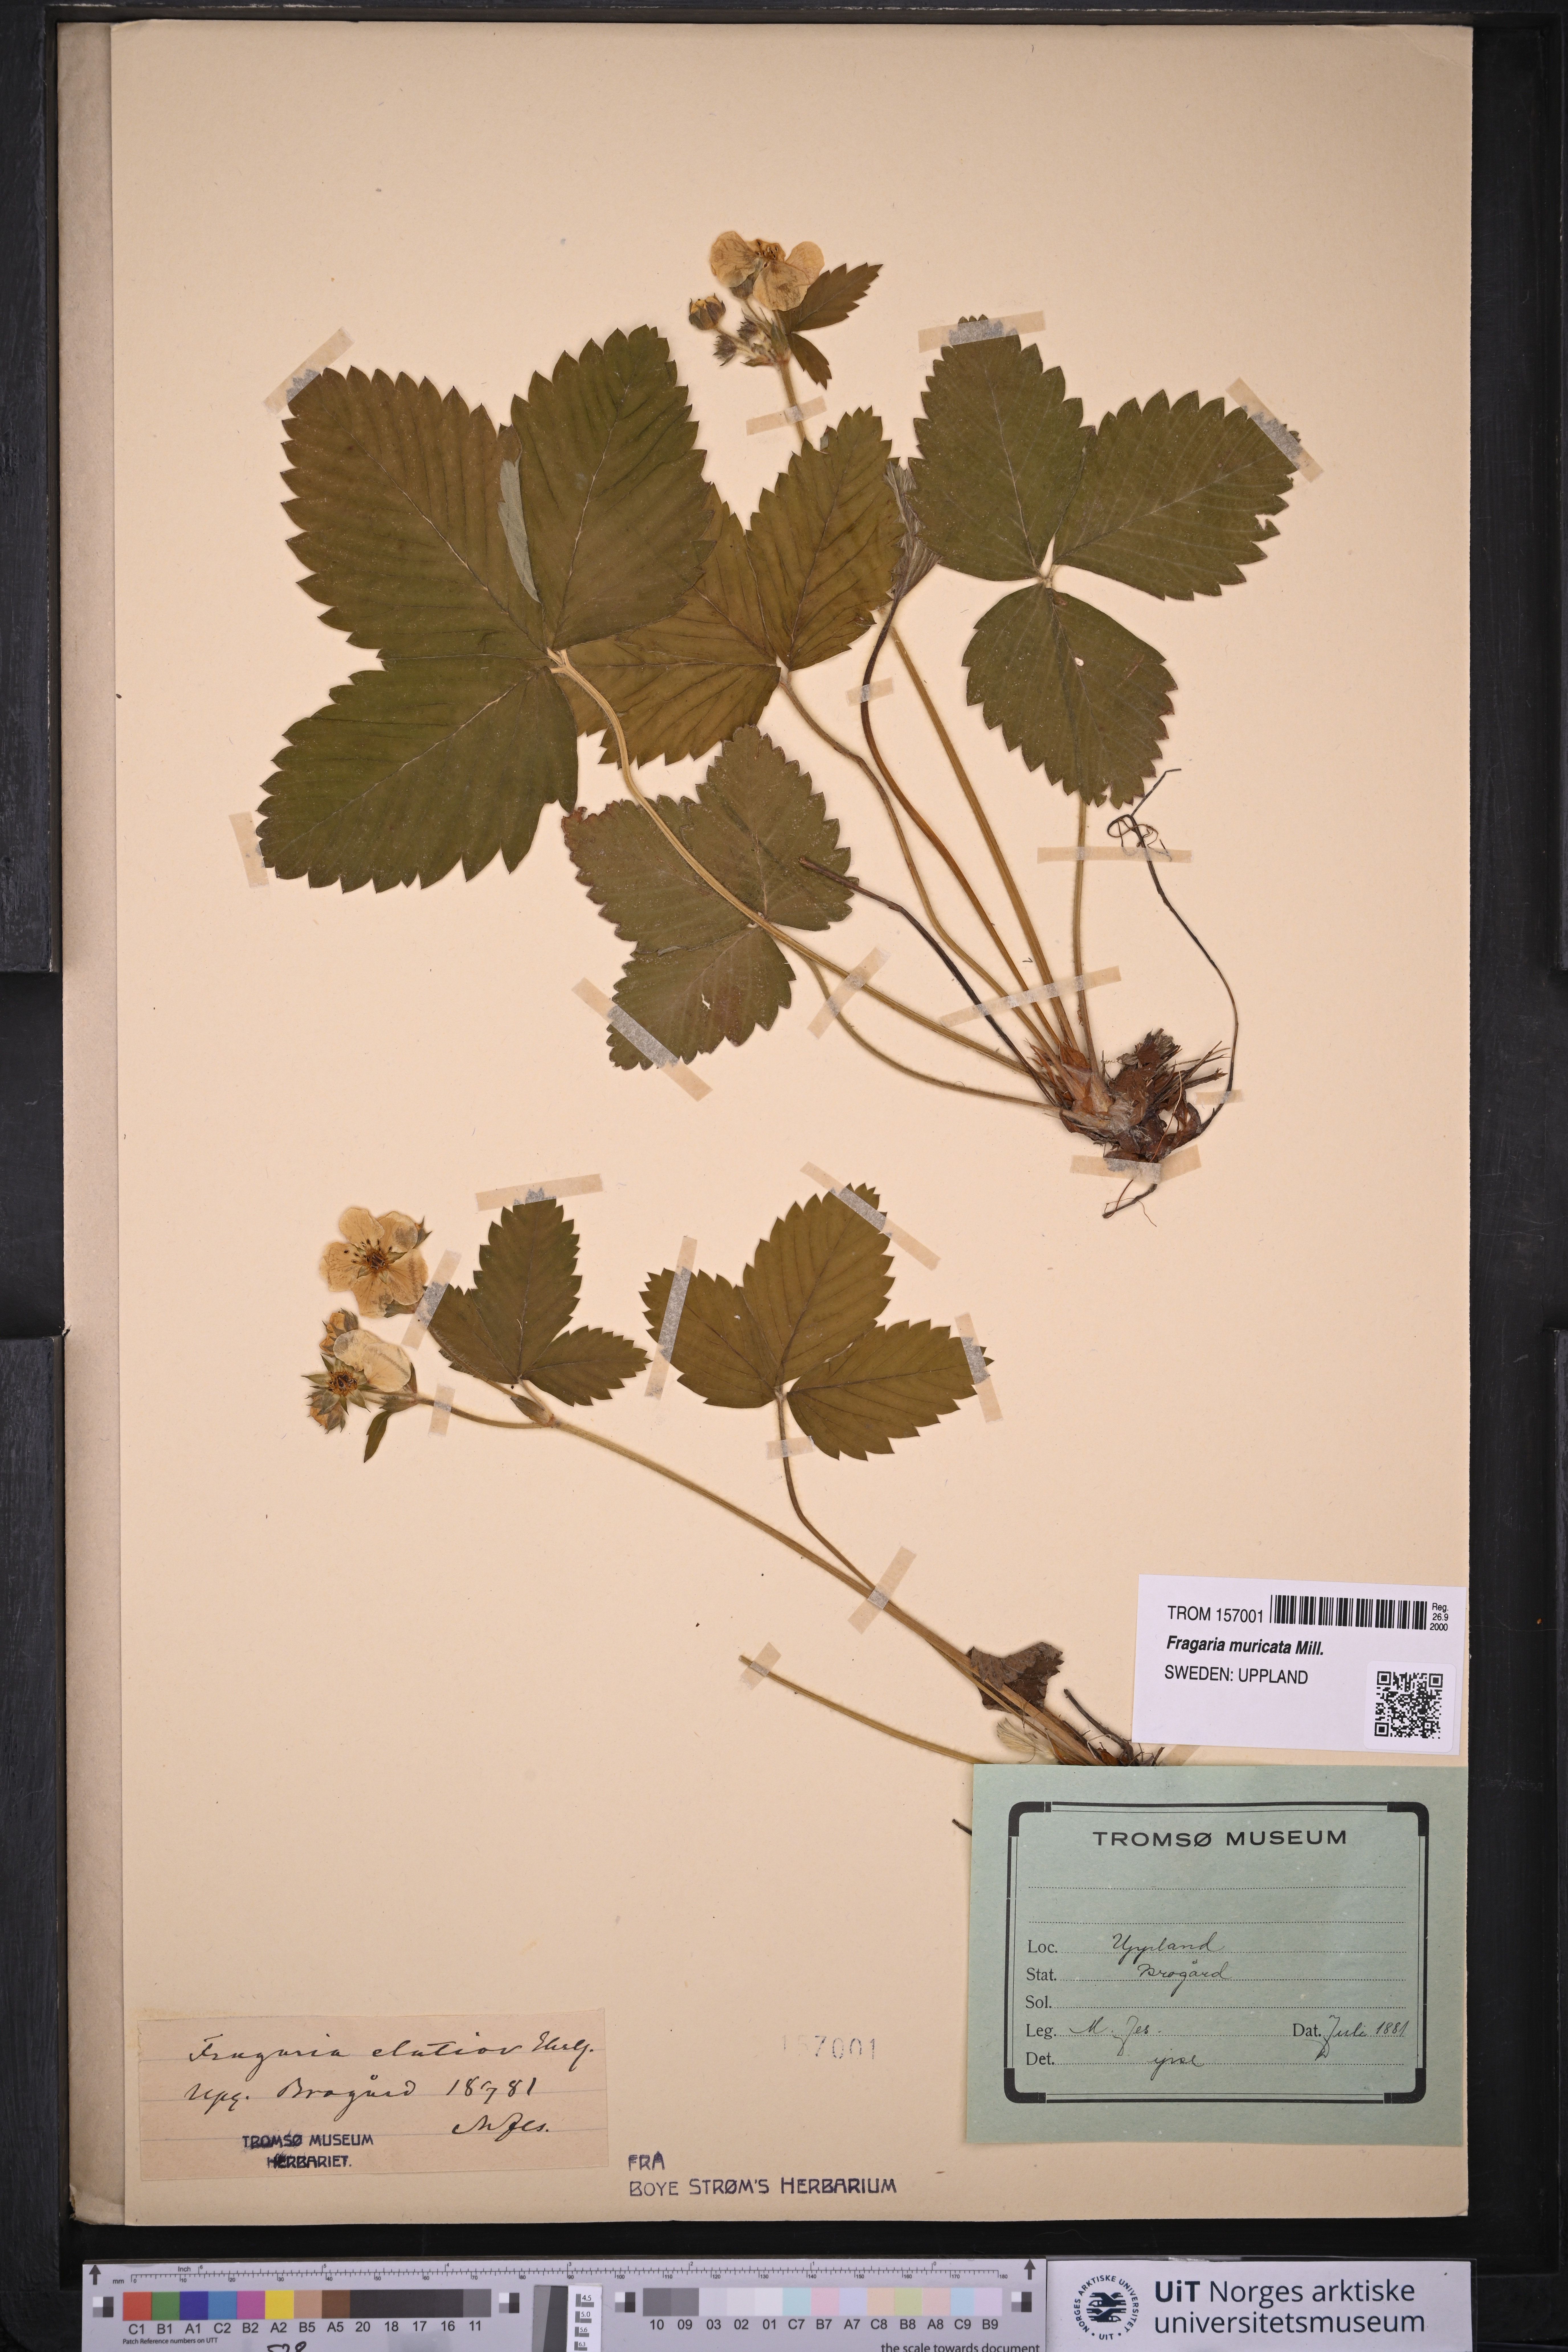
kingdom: Plantae
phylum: Tracheophyta
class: Magnoliopsida
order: Rosales
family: Rosaceae
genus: Fragaria
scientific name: Fragaria moschata
